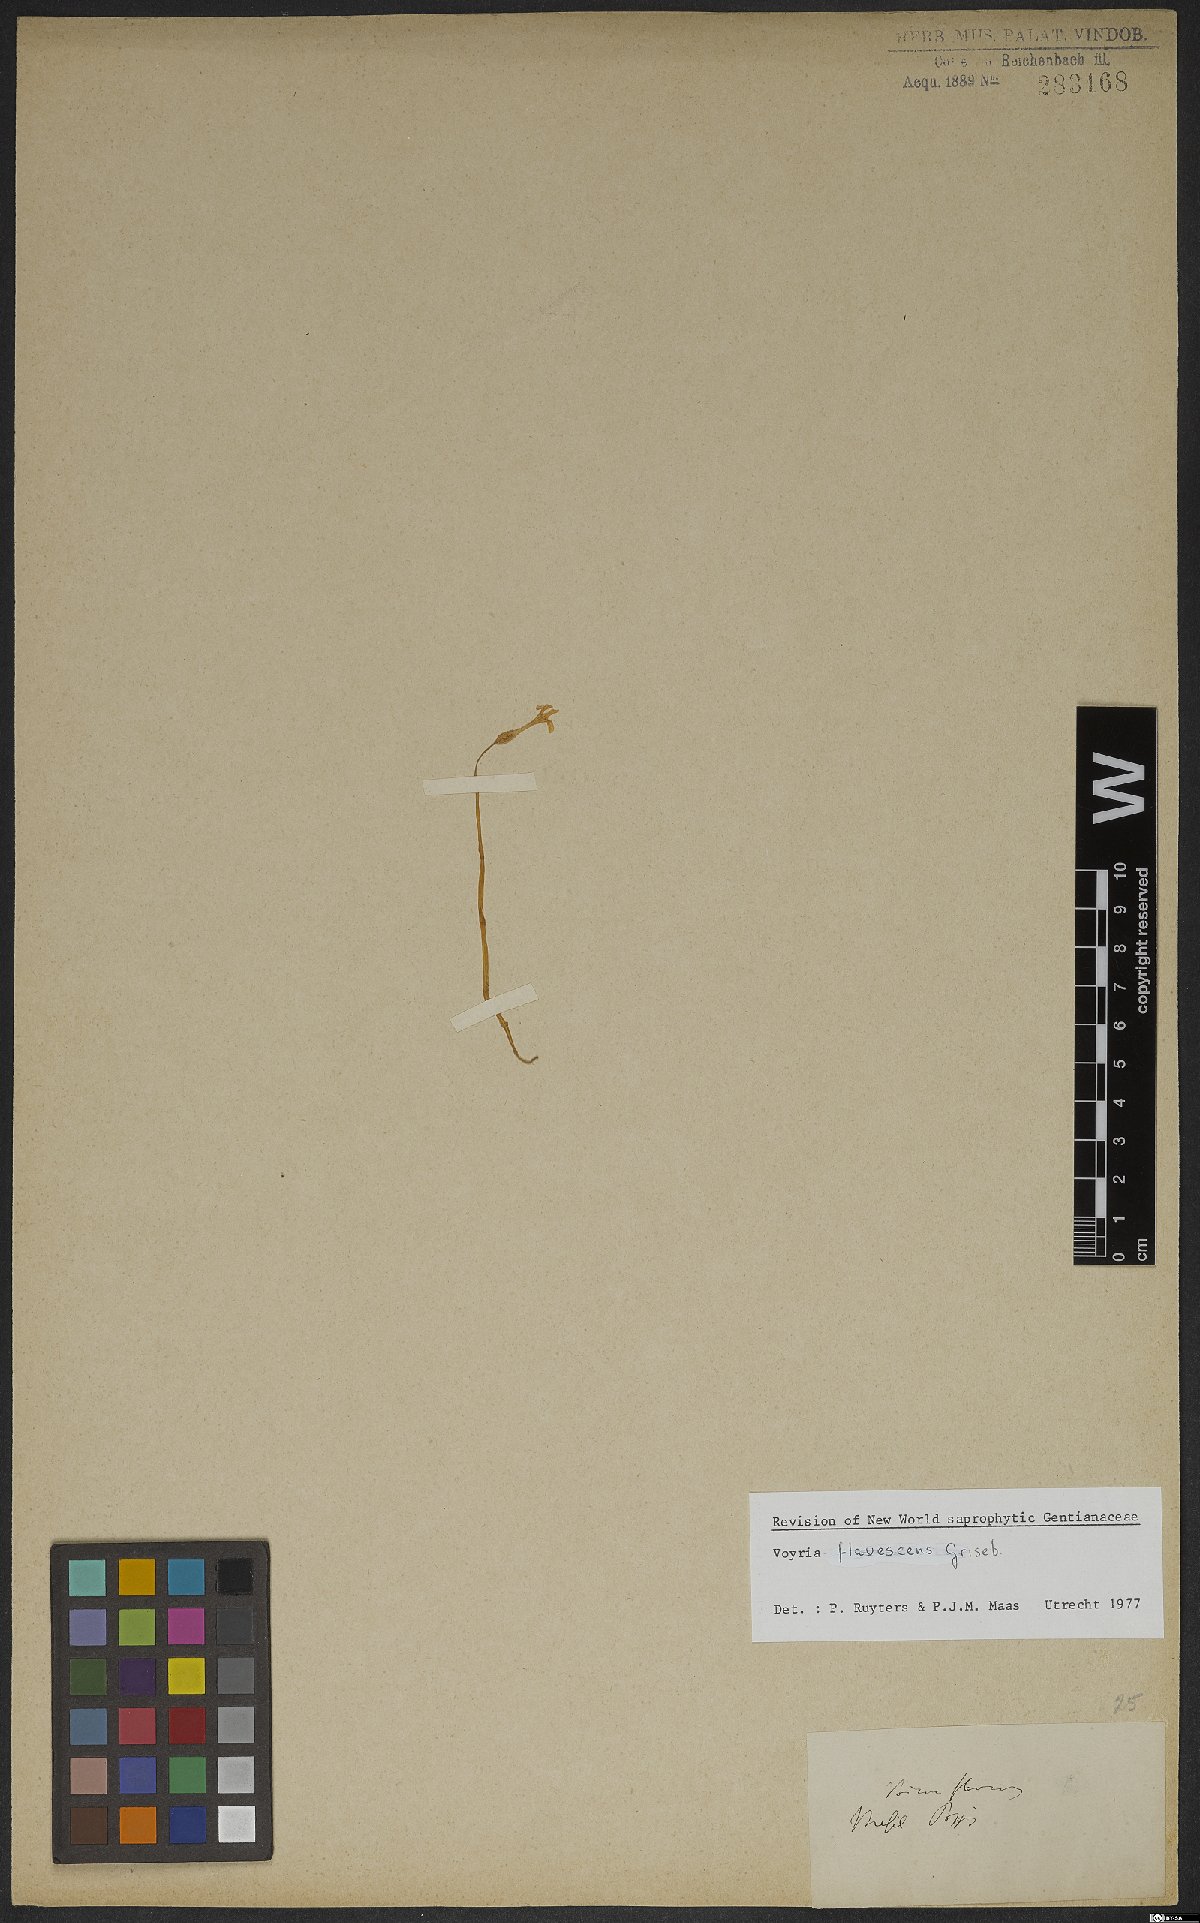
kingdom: Plantae
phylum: Tracheophyta
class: Magnoliopsida
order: Gentianales
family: Gentianaceae
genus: Voyria
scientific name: Voyria flavescens
